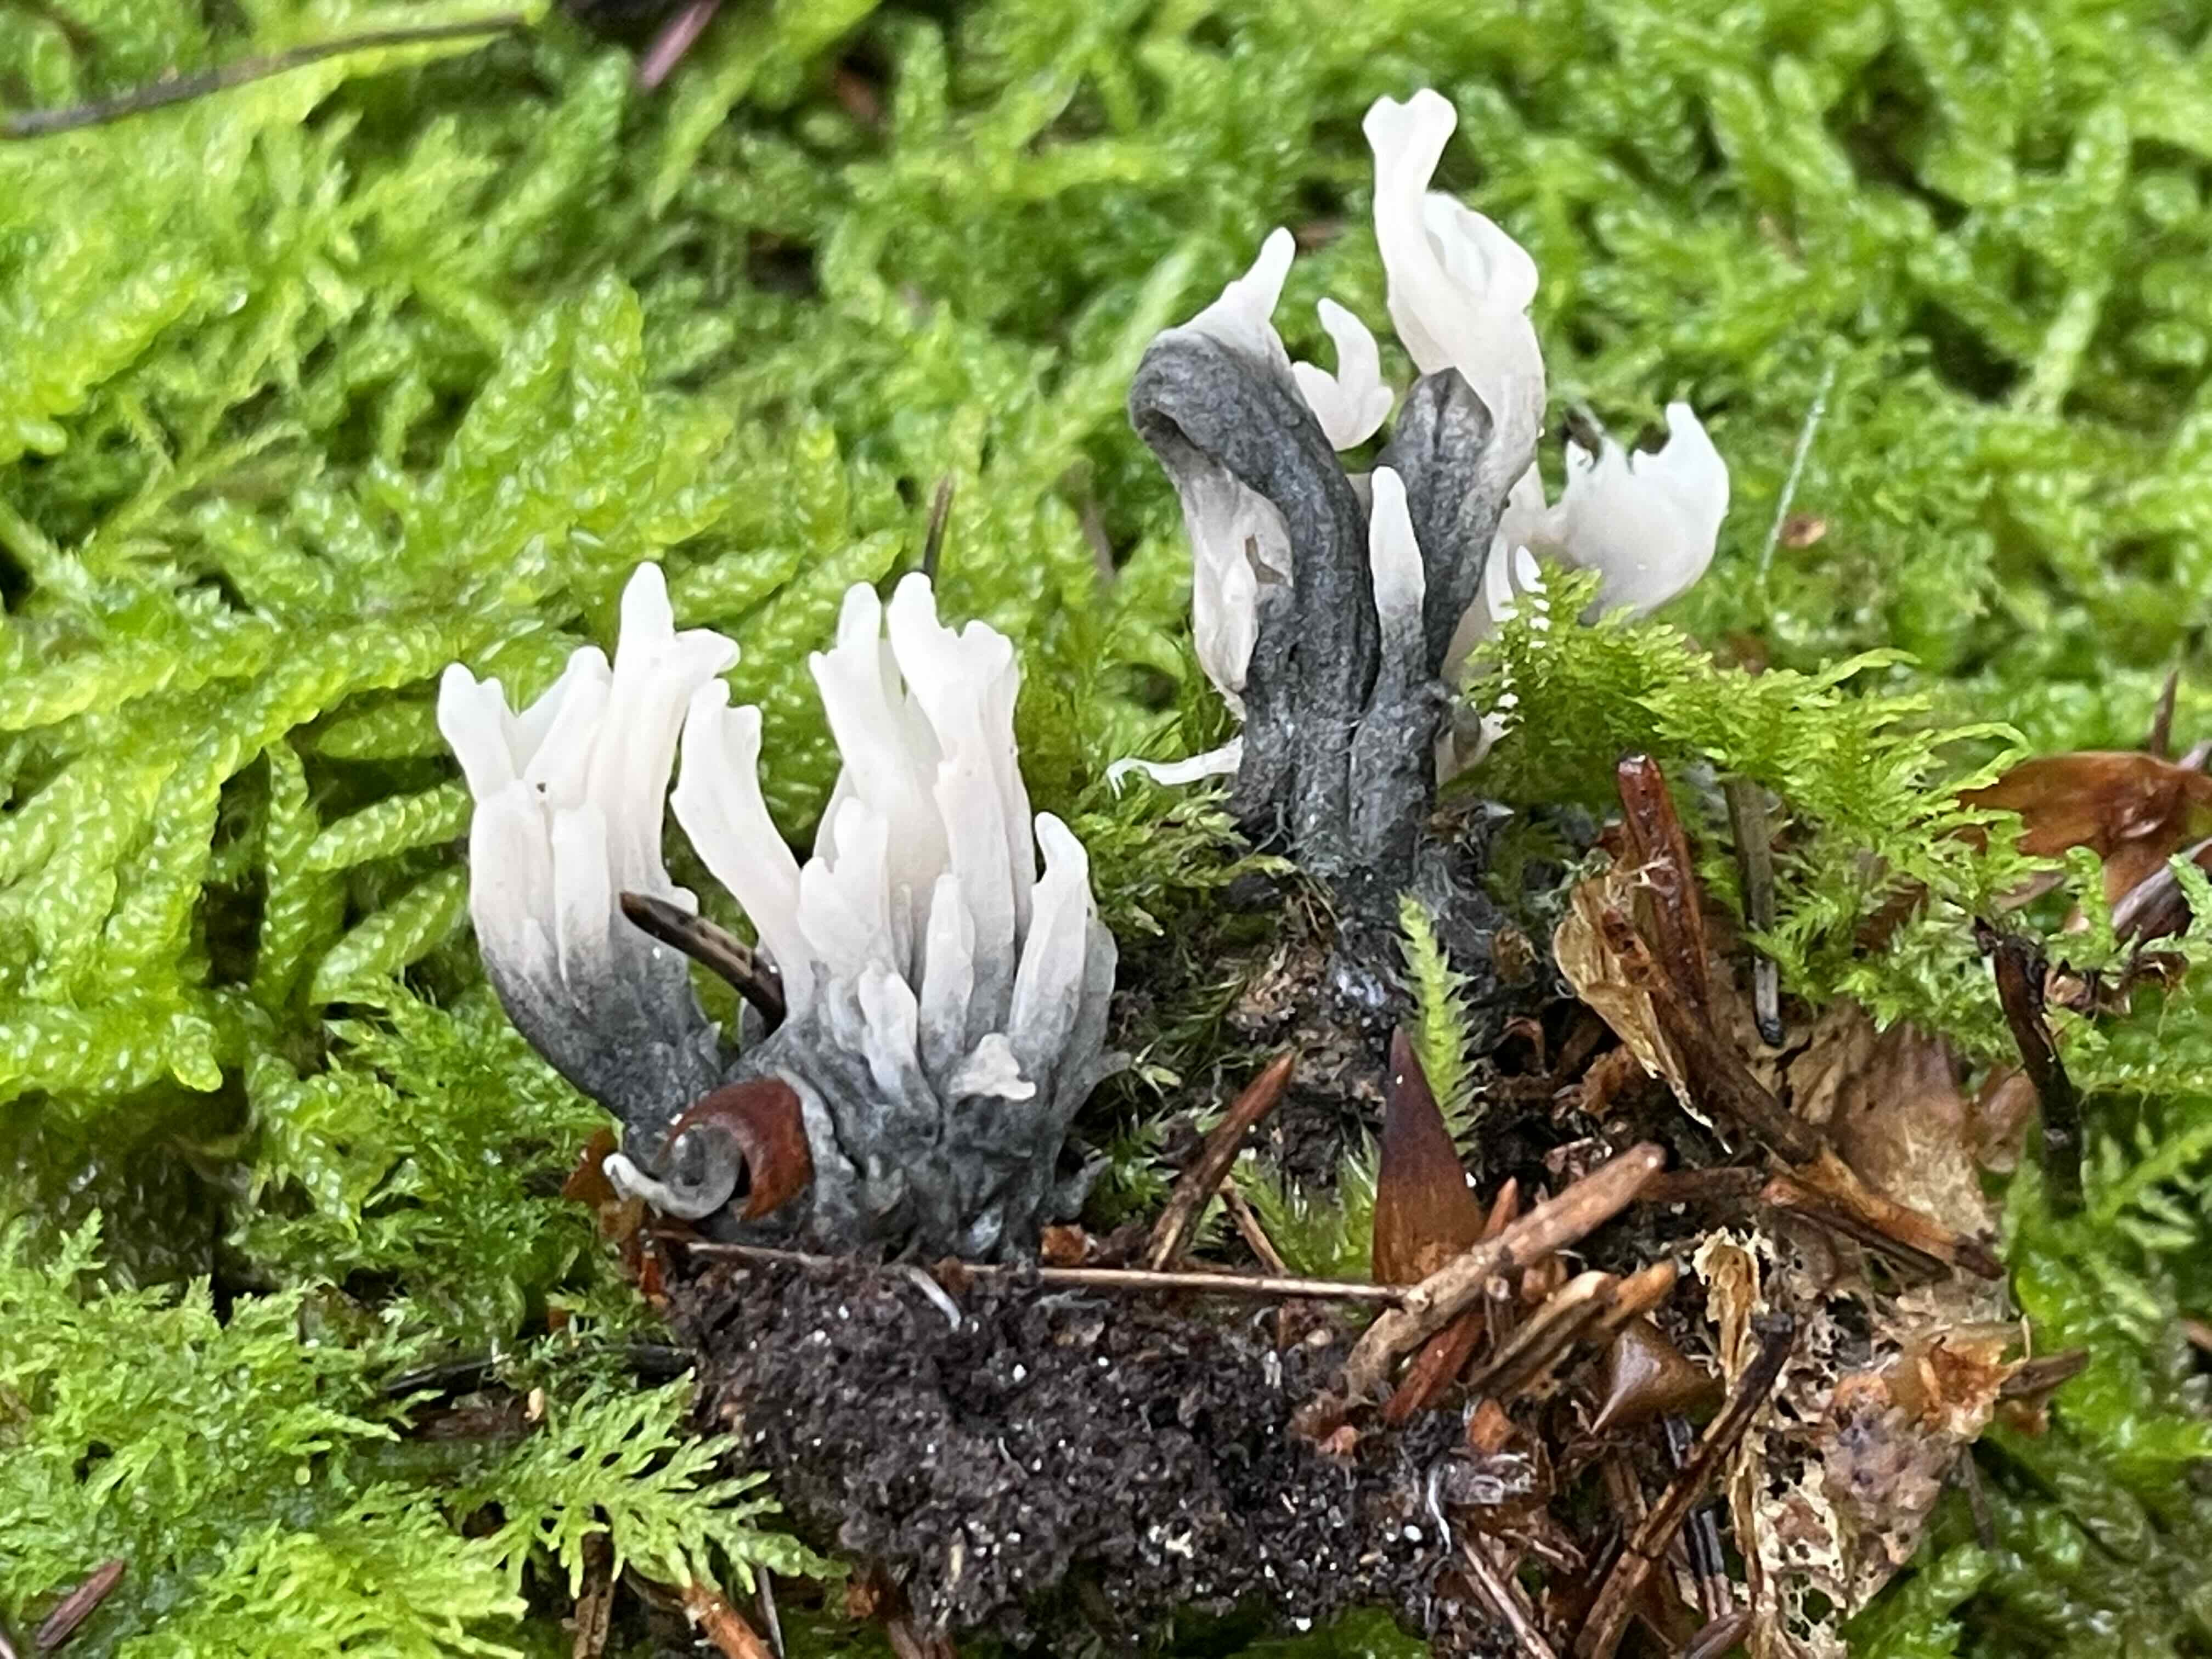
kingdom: Fungi
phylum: Ascomycota
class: Sordariomycetes
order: Sordariales
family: Helminthosphaeriaceae
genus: Helminthosphaeria
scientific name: Helminthosphaeria clavariarum
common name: trold-svampesnyltekerne
